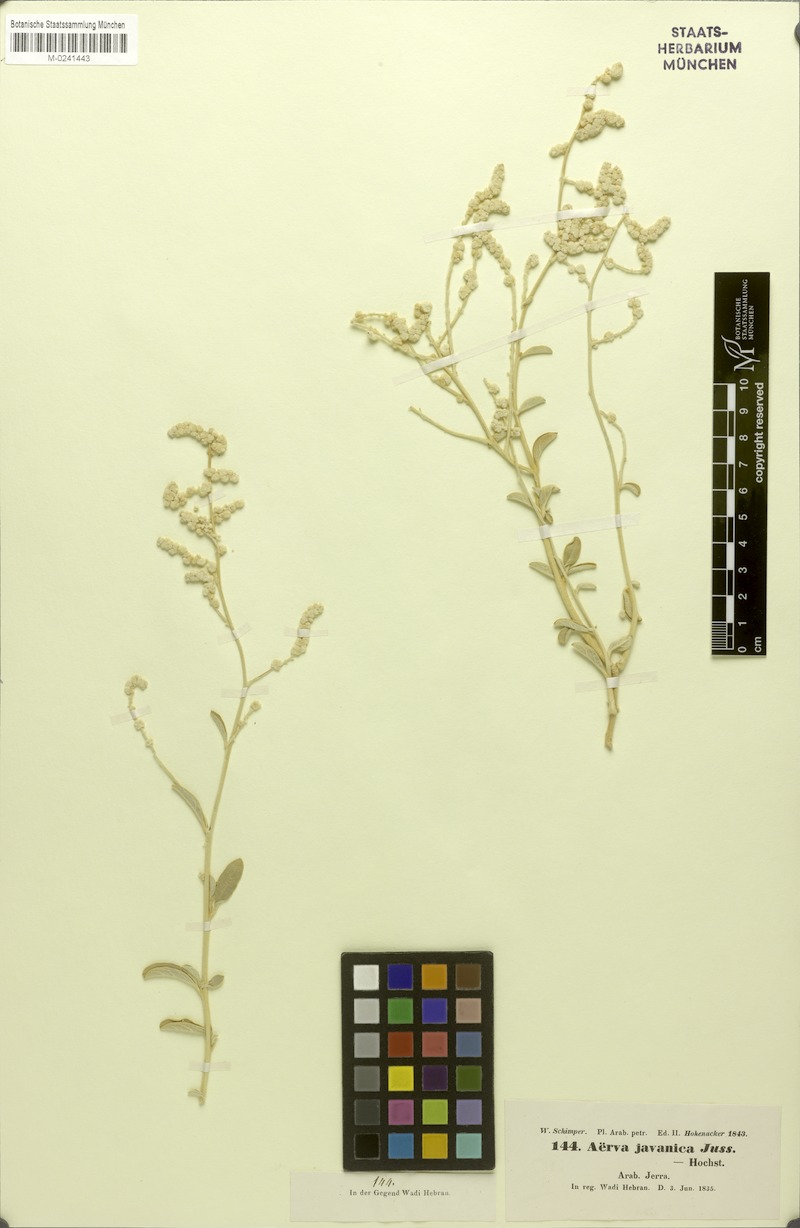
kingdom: Plantae
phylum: Tracheophyta
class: Magnoliopsida
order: Caryophyllales
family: Amaranthaceae
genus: Aerva
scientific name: Aerva javanica
